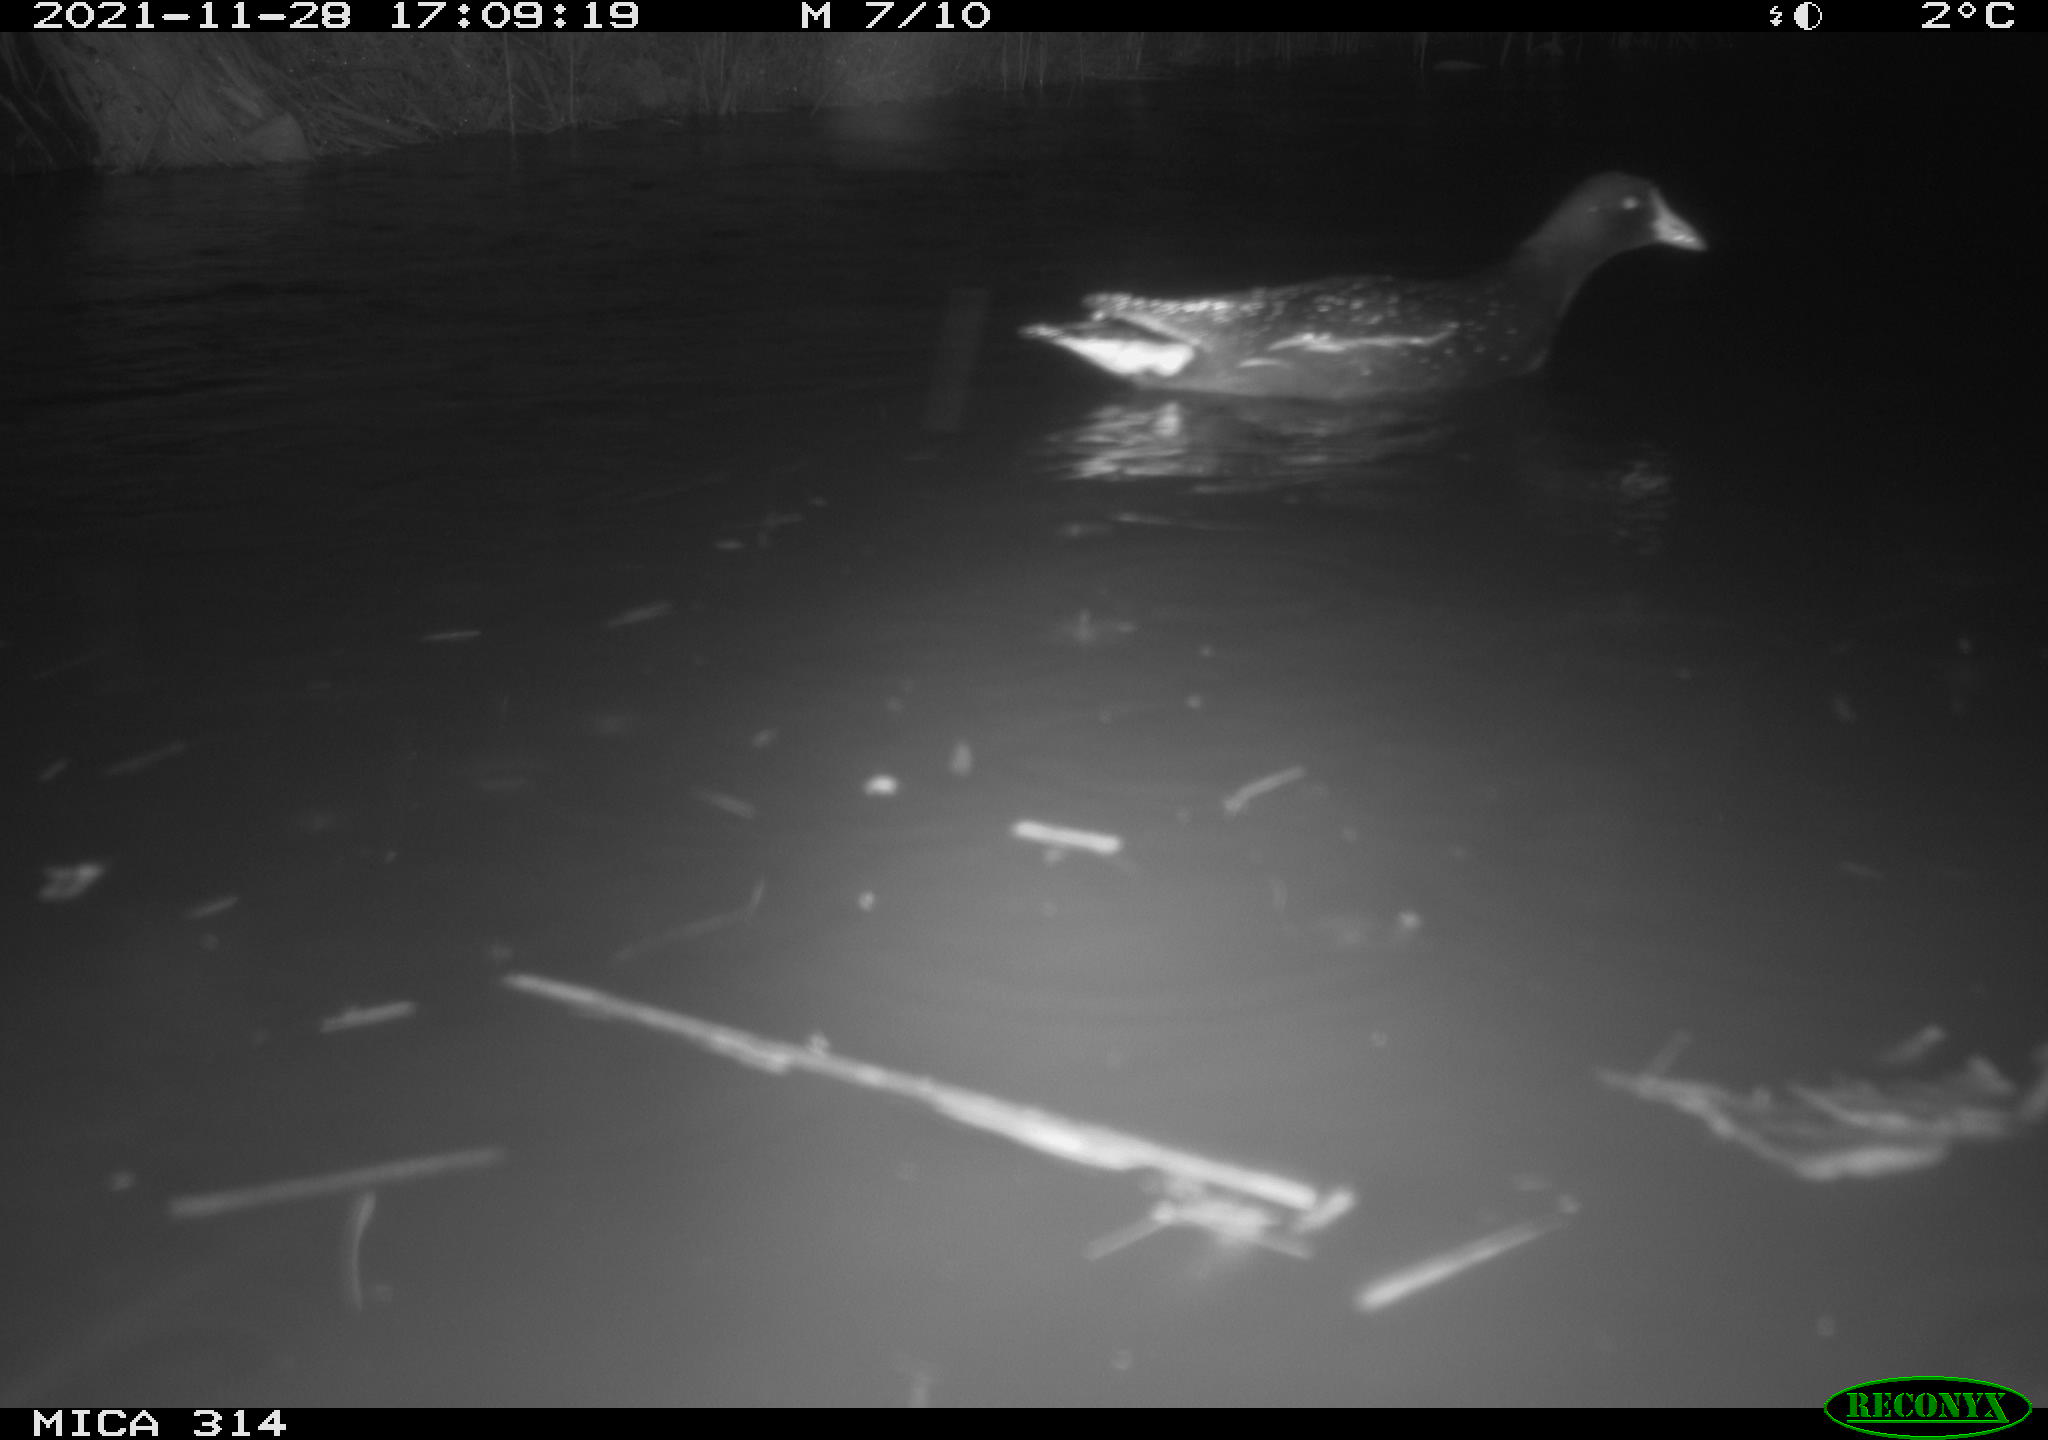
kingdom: Animalia
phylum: Chordata
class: Aves
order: Anseriformes
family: Anatidae
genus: Mareca
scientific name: Mareca strepera
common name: Gadwall
